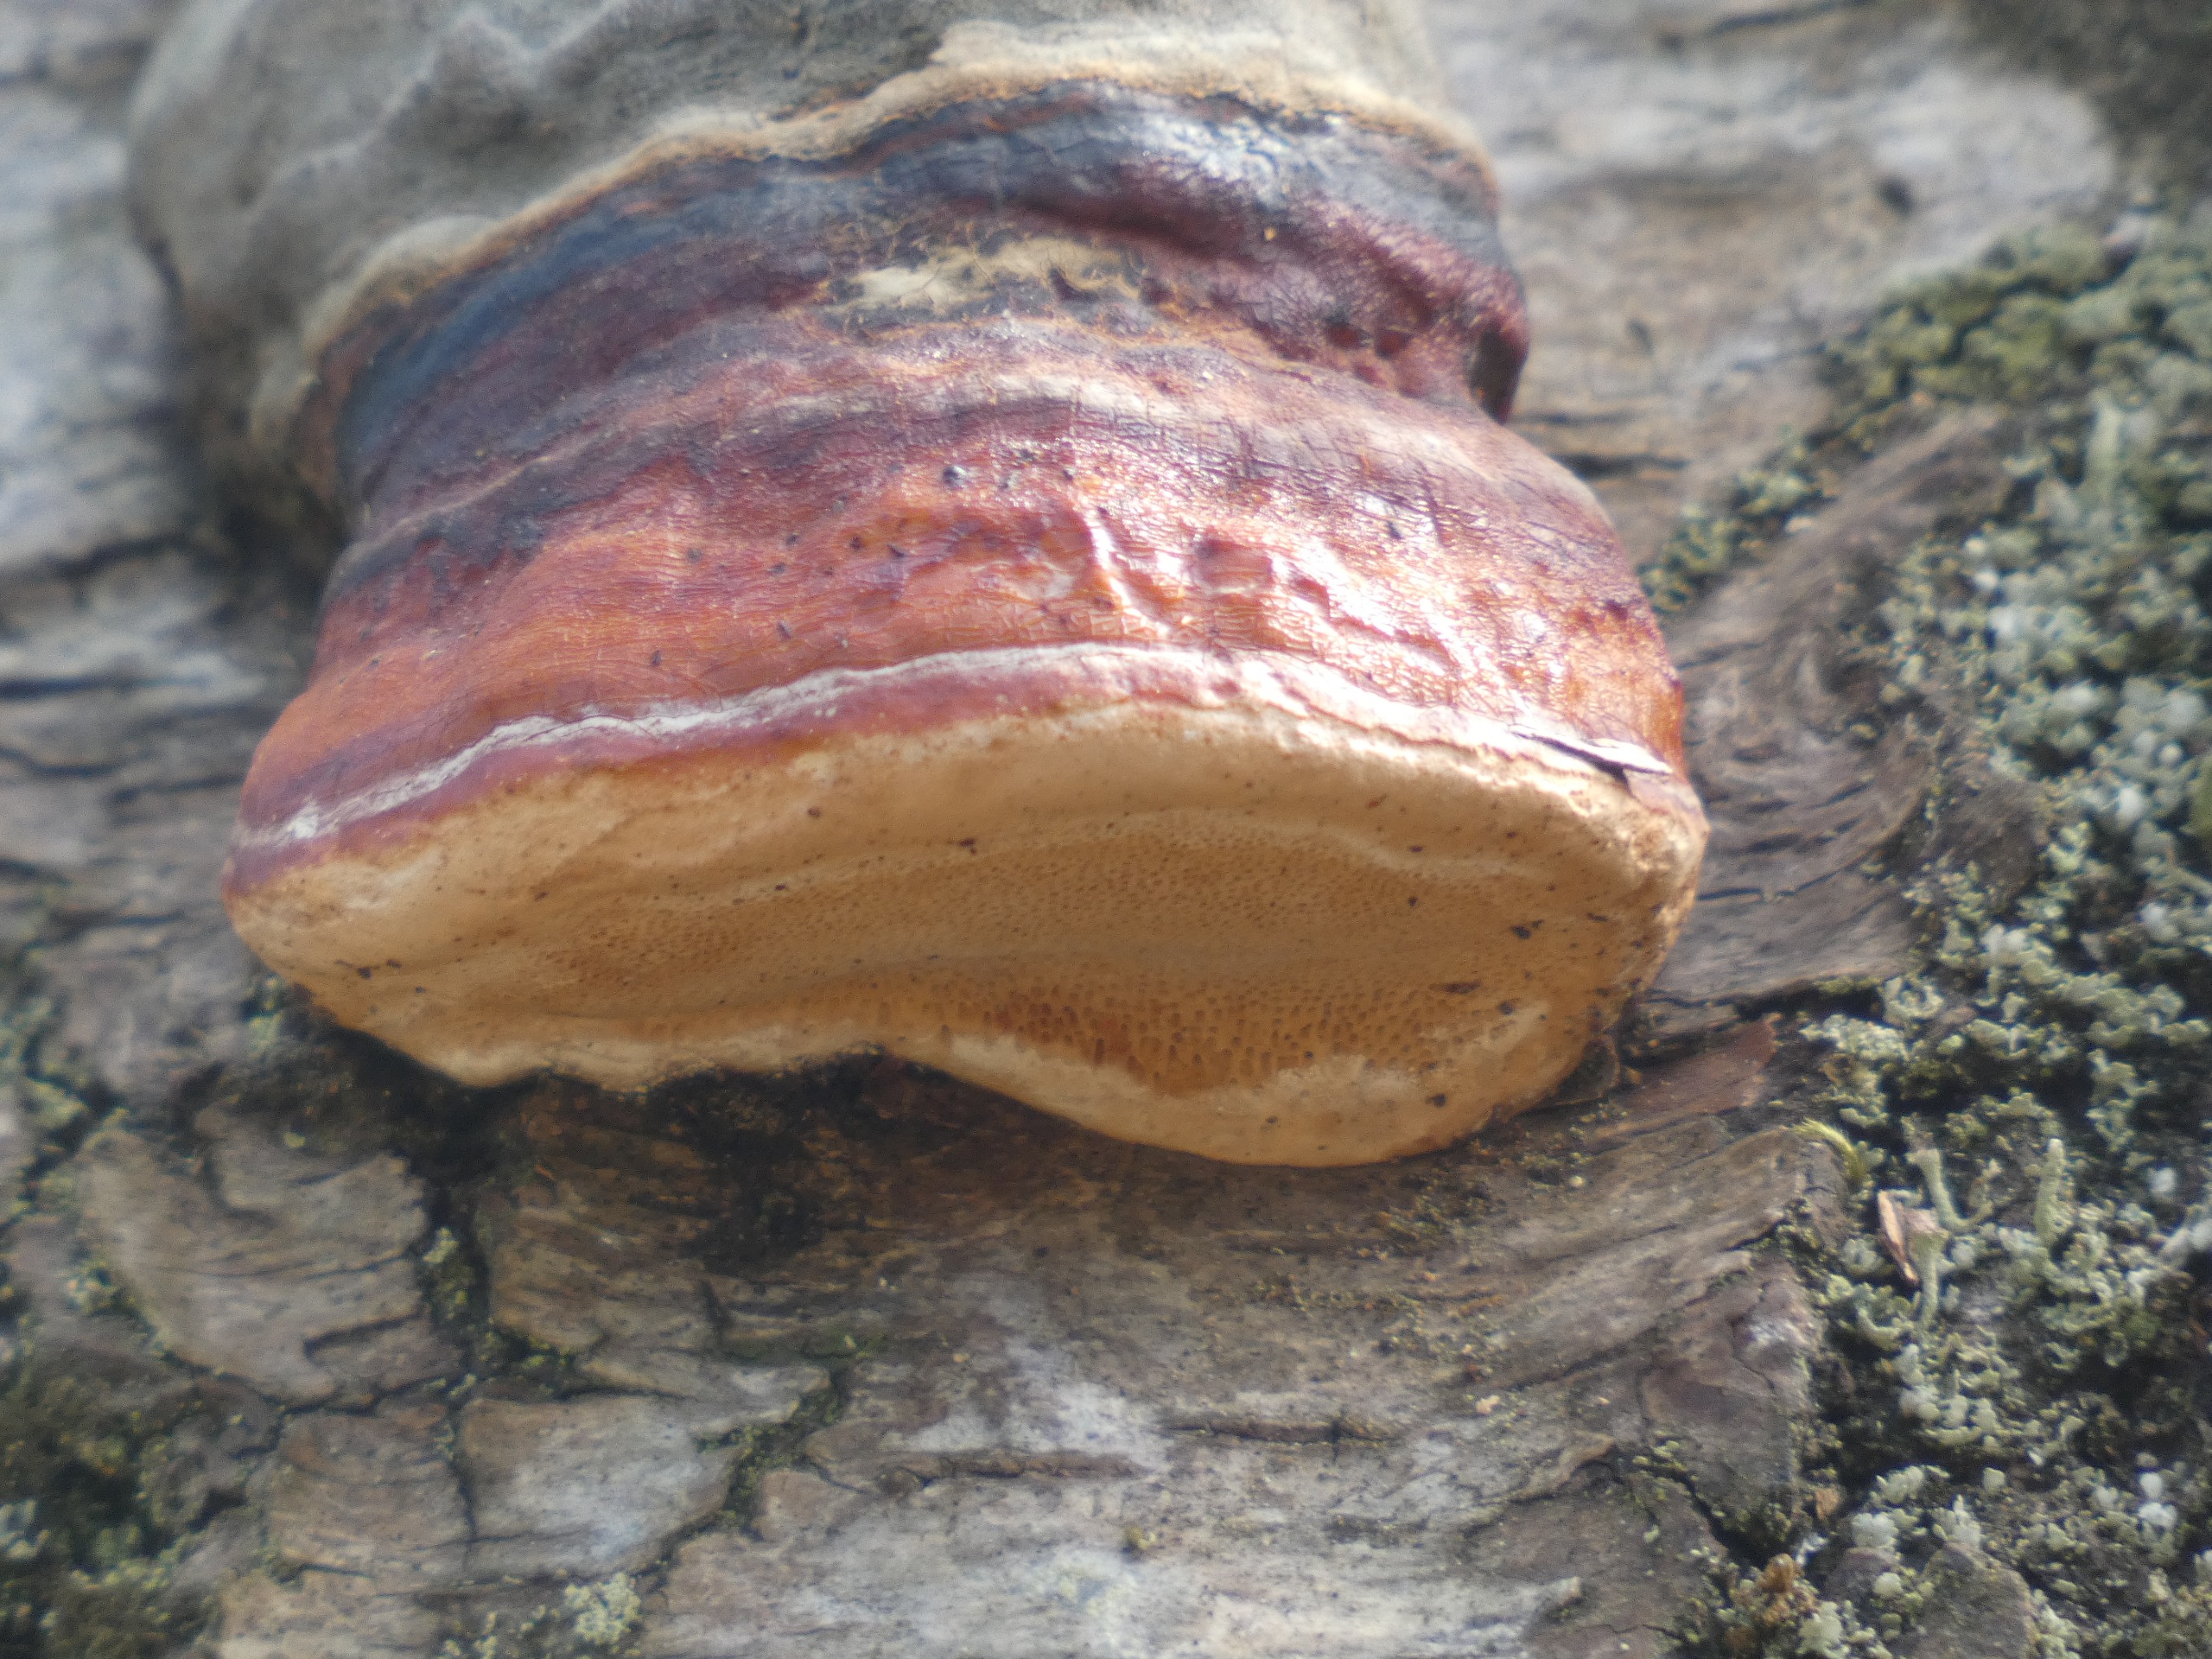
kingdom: Fungi
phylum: Basidiomycota
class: Agaricomycetes
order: Polyporales
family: Fomitopsidaceae
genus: Fomitopsis
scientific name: Fomitopsis pinicola
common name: Randbæltet hovporesvamp
